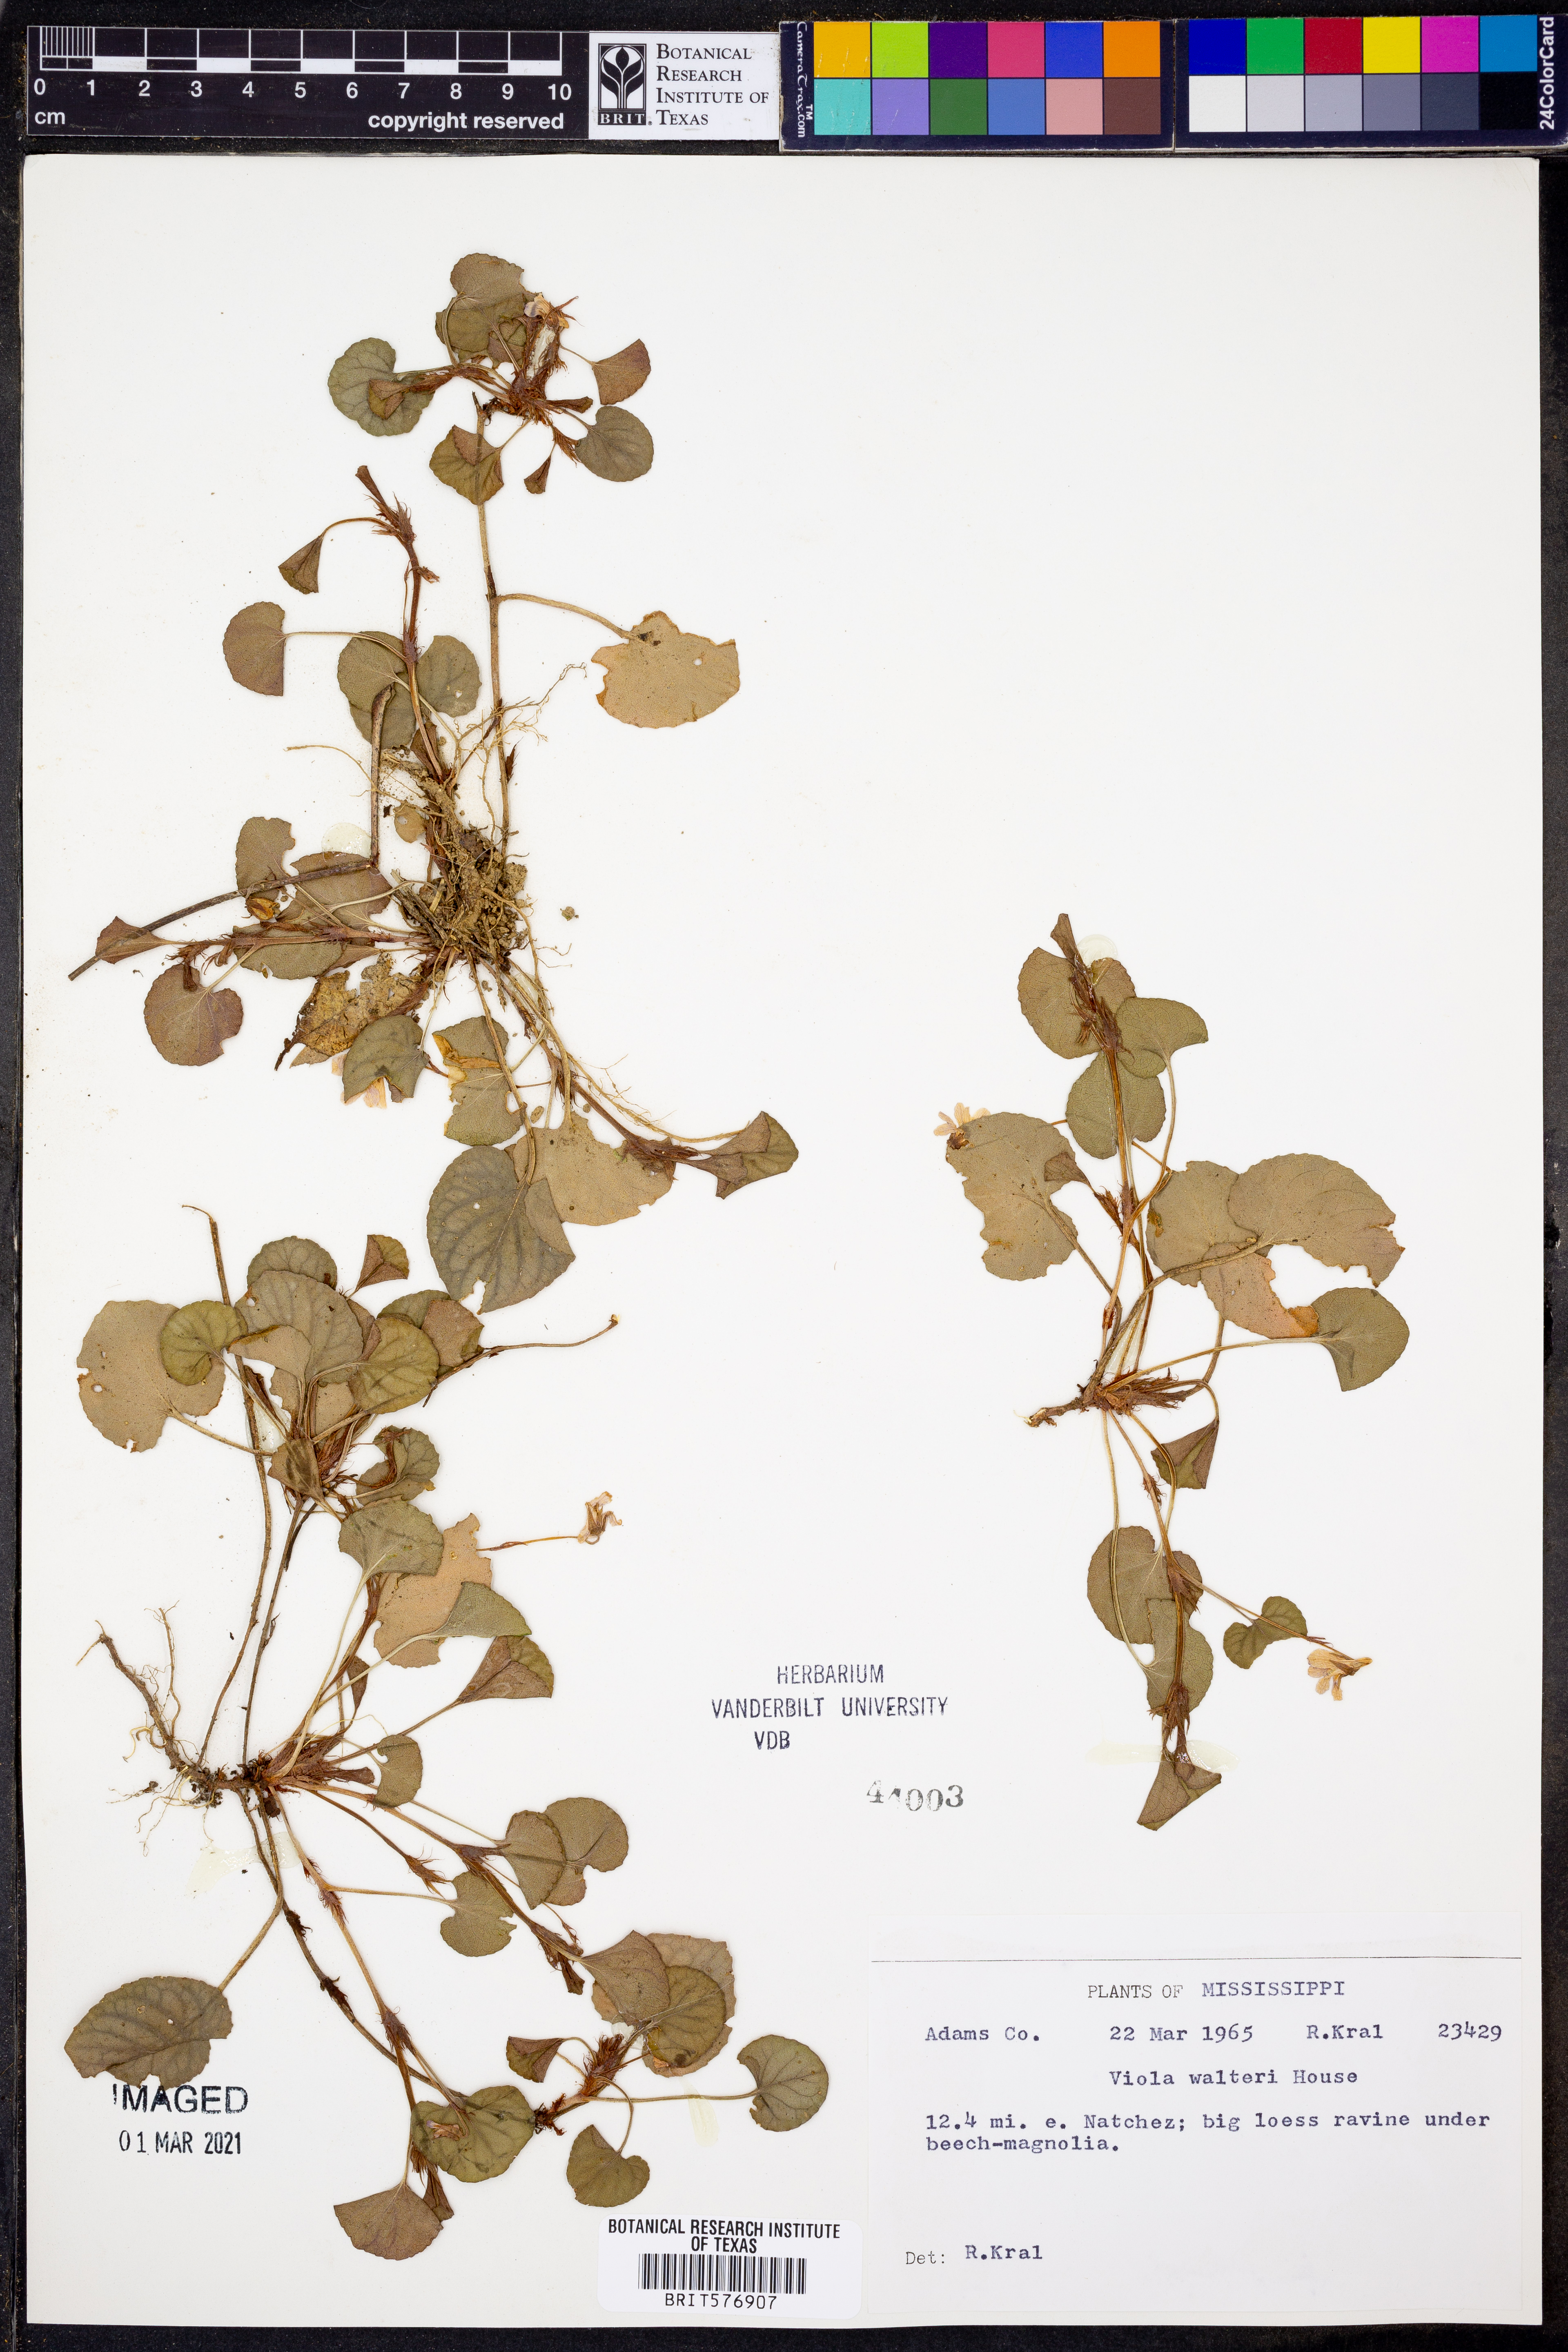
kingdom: Plantae
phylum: Tracheophyta
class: Magnoliopsida
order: Malpighiales
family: Violaceae
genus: Viola
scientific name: Viola walteri
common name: Prostrate southern violet
